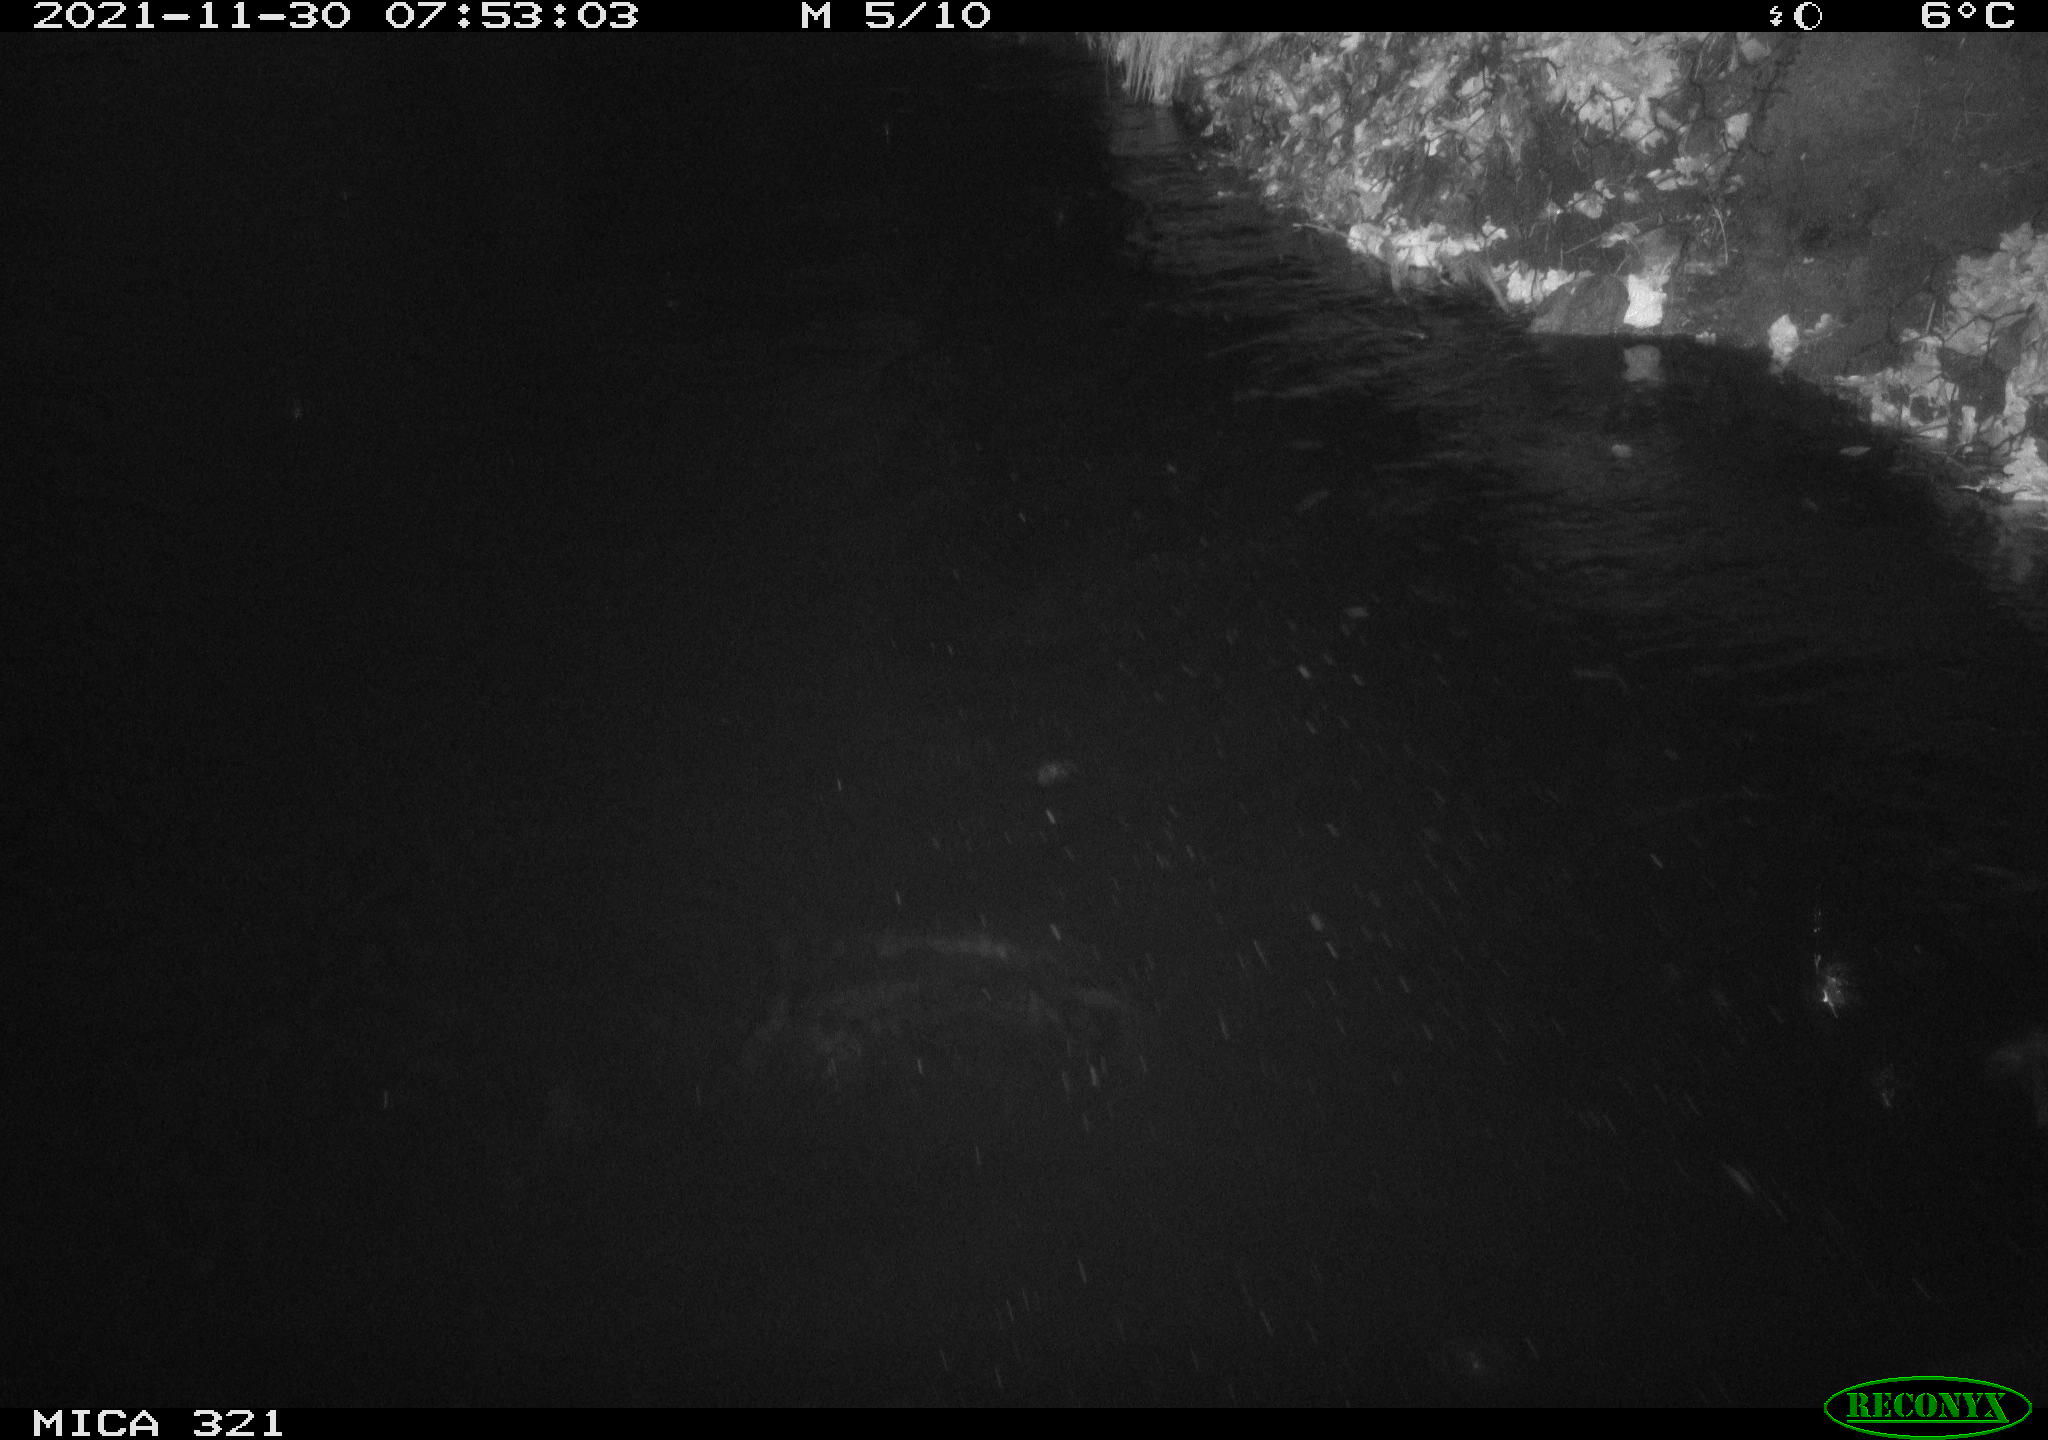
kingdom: Animalia
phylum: Chordata
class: Aves
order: Anseriformes
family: Anatidae
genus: Anas
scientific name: Anas platyrhynchos
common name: Mallard
